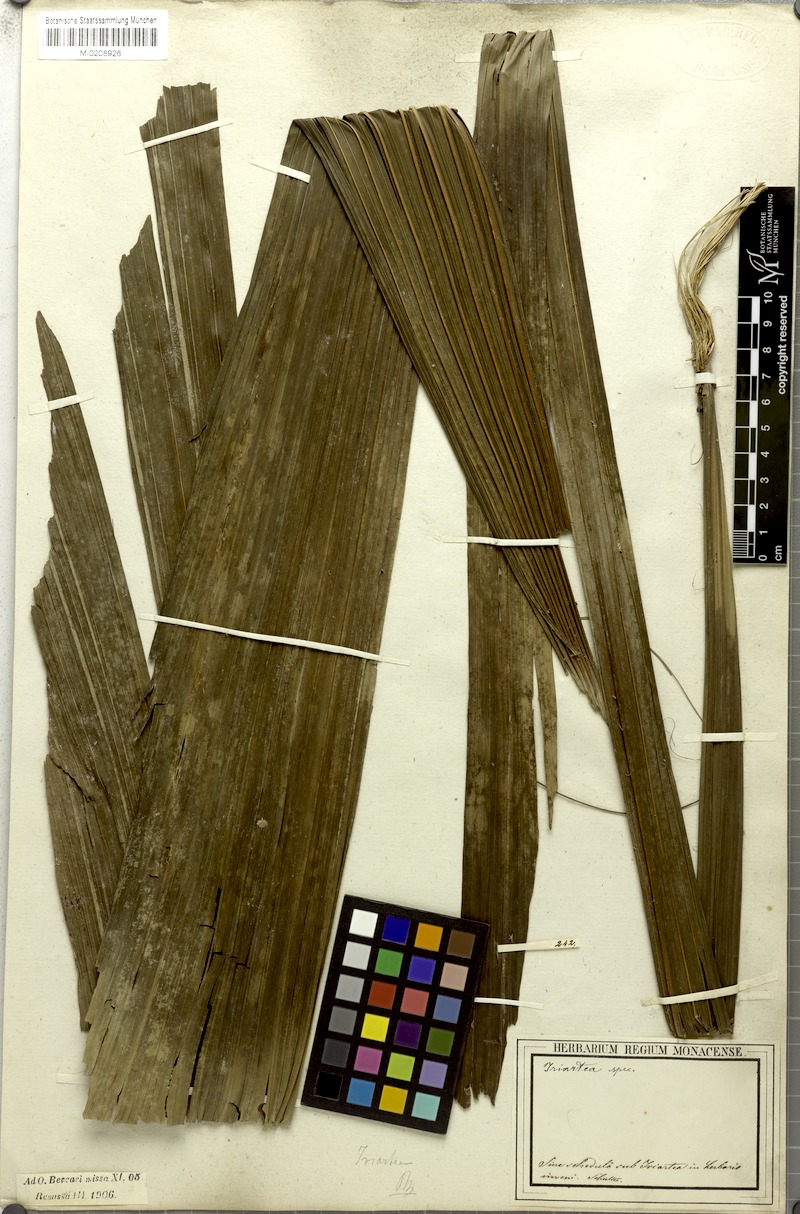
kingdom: Plantae
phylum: Tracheophyta
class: Liliopsida
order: Arecales
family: Arecaceae
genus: Iriartea
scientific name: Iriartea
